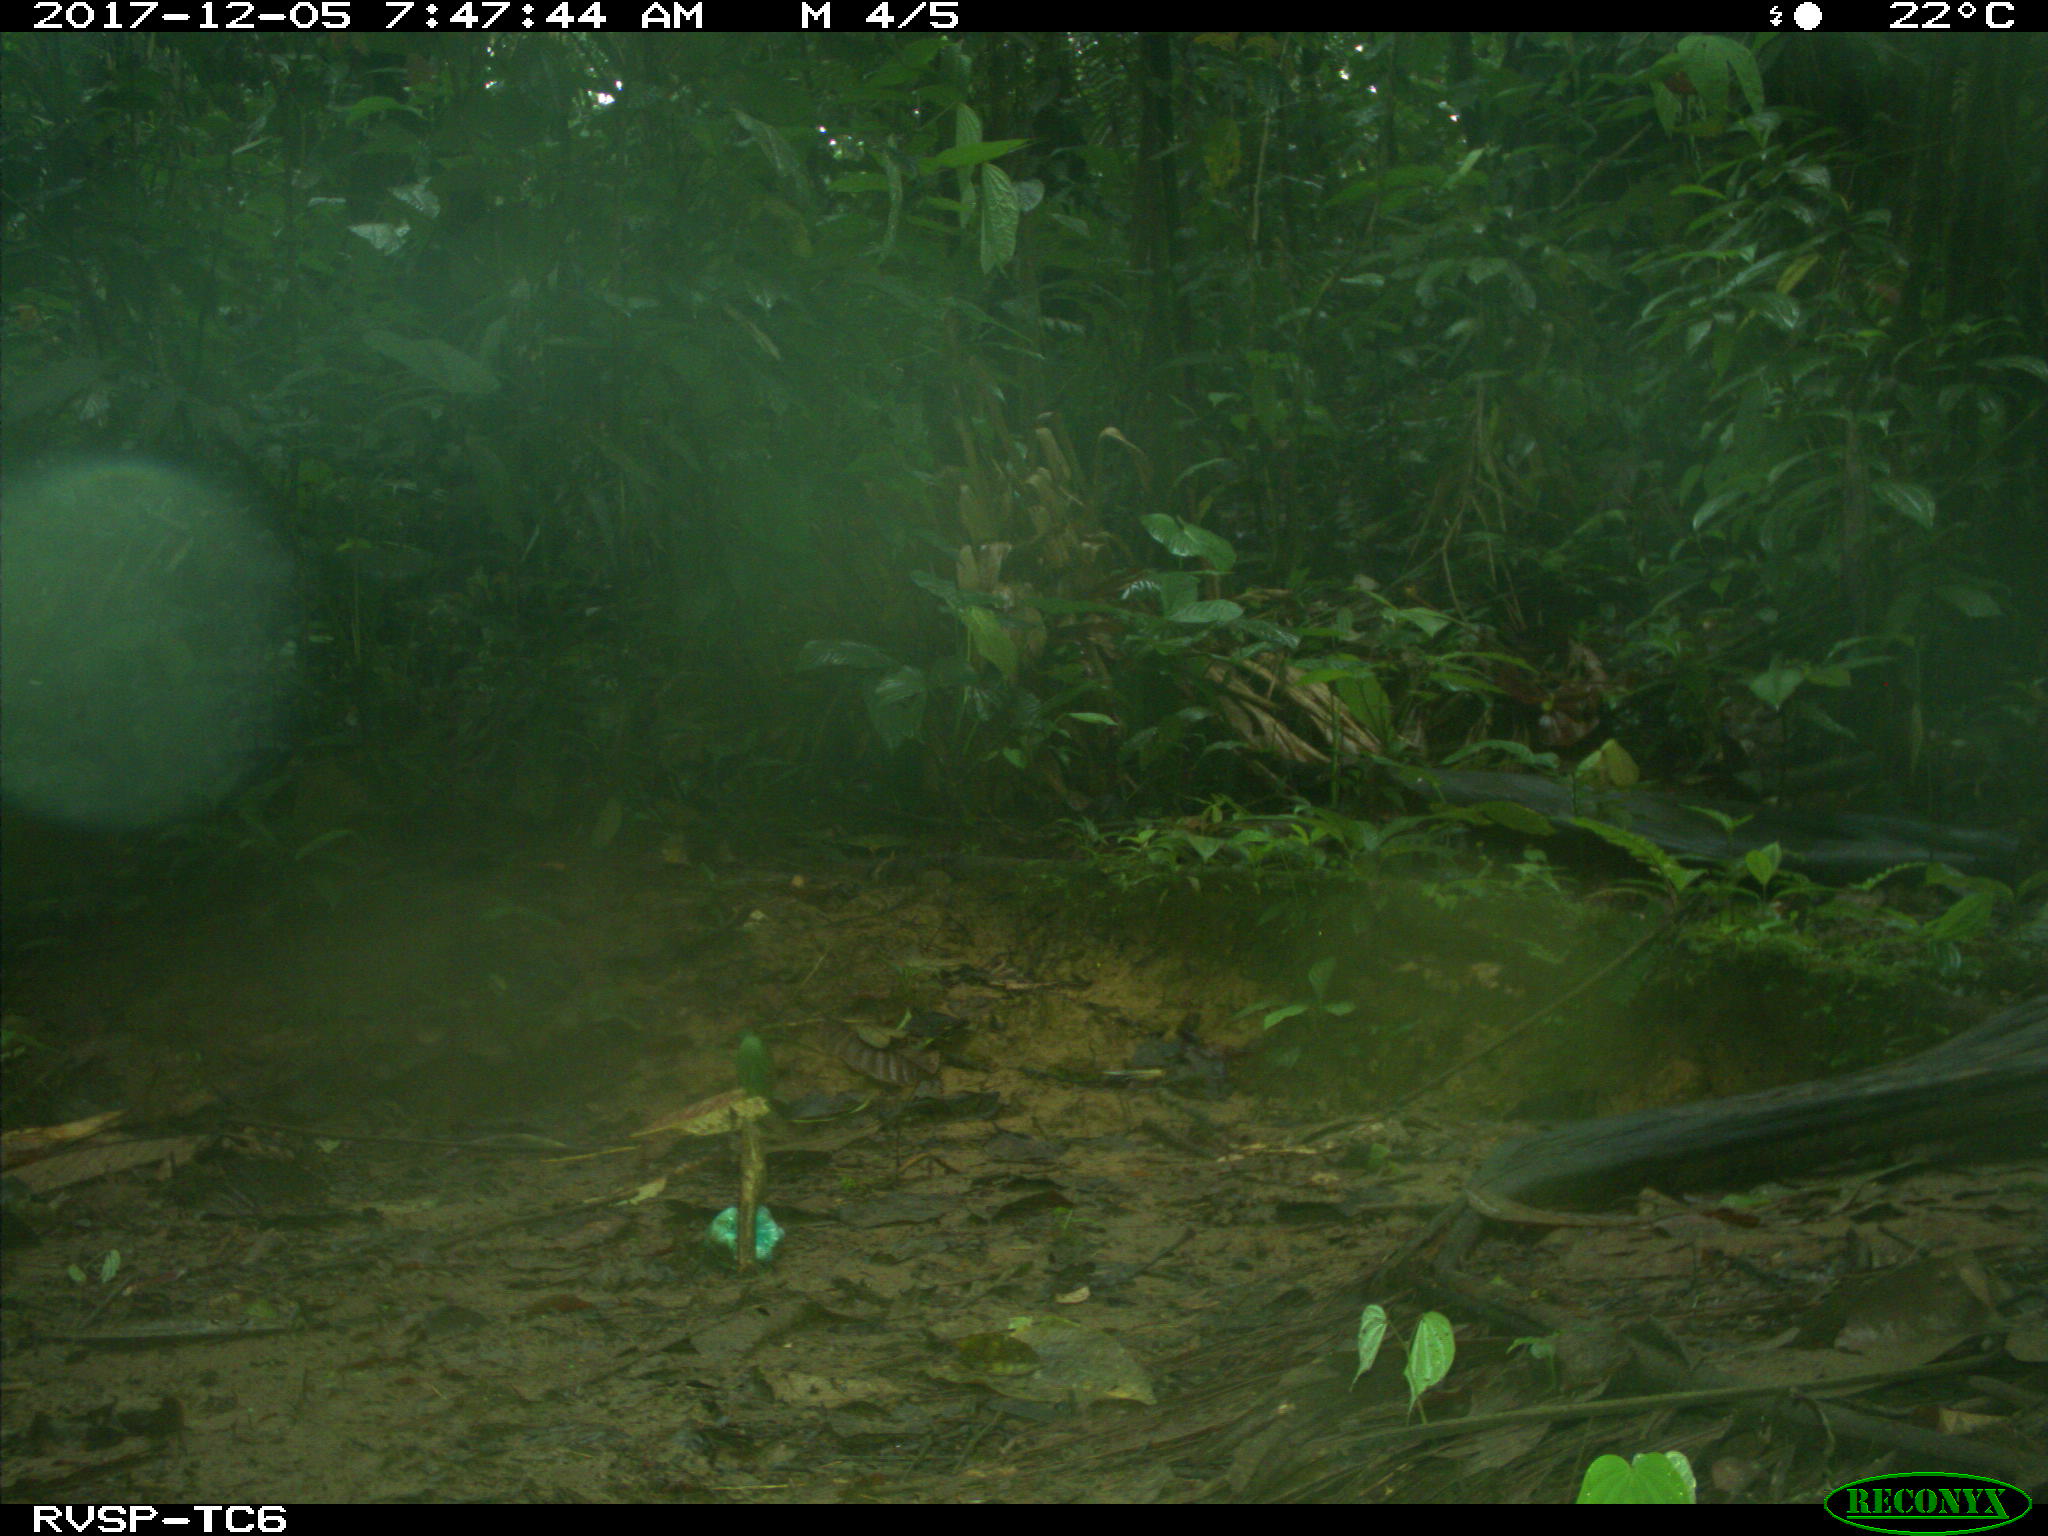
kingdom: Animalia
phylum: Chordata
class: Mammalia
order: Rodentia
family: Dasyproctidae
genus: Dasyprocta
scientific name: Dasyprocta punctata
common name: Central american agouti
